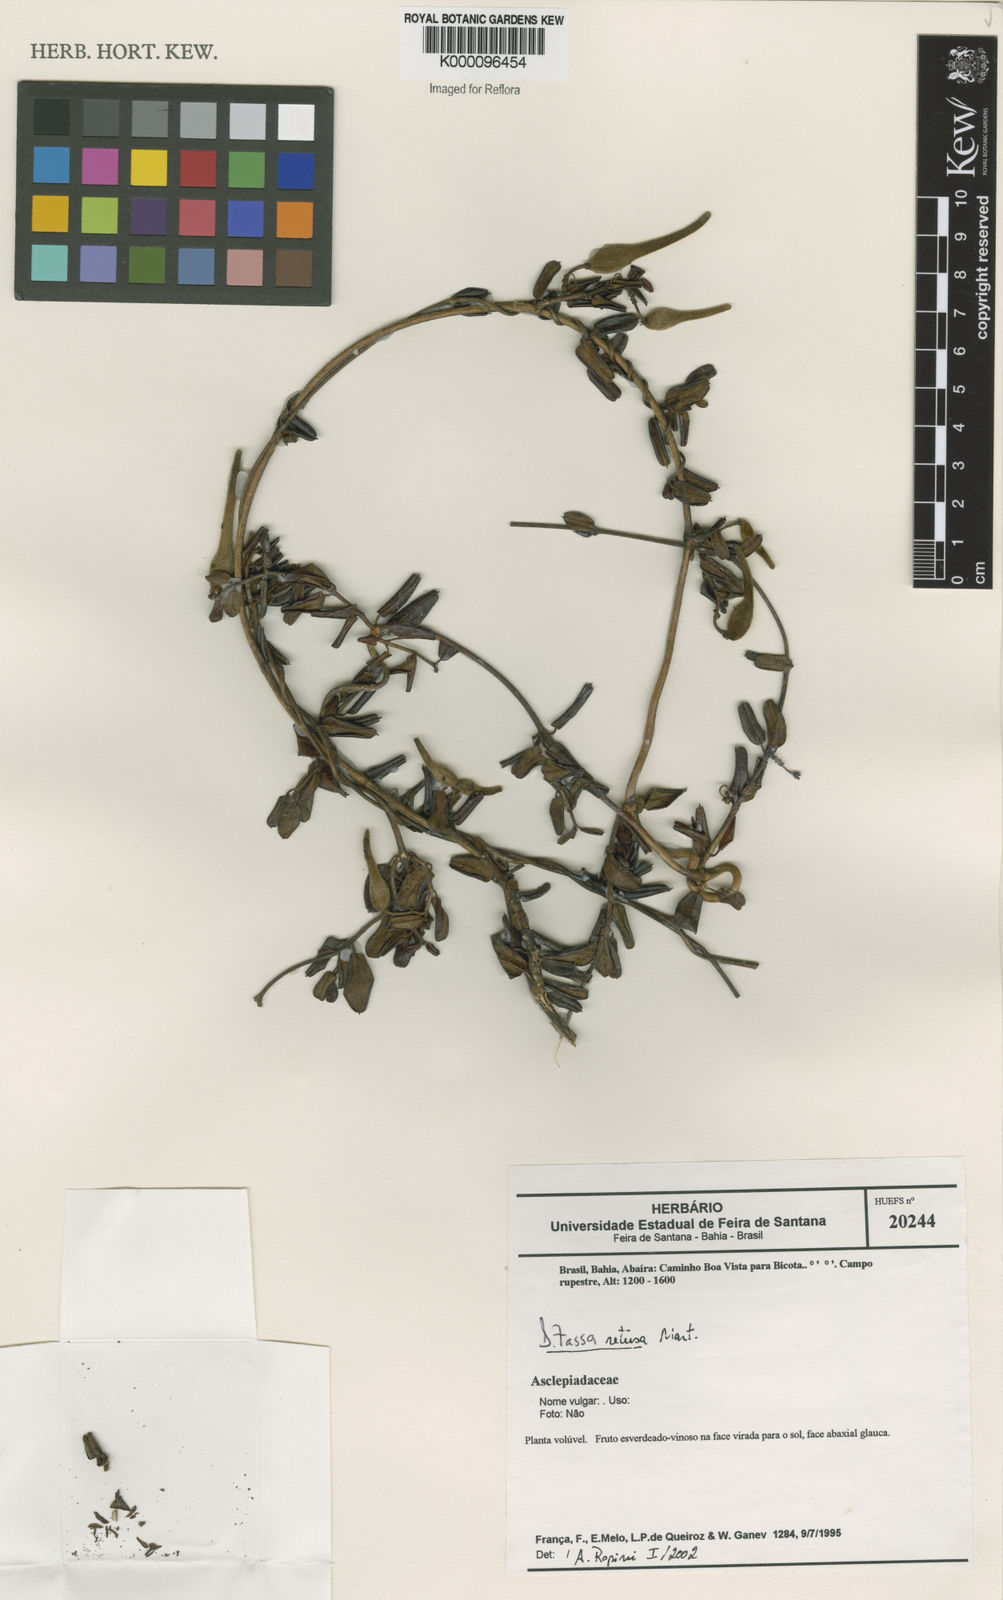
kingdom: Plantae
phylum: Tracheophyta
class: Magnoliopsida
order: Gentianales
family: Apocynaceae
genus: Ditassa
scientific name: Ditassa retusa
